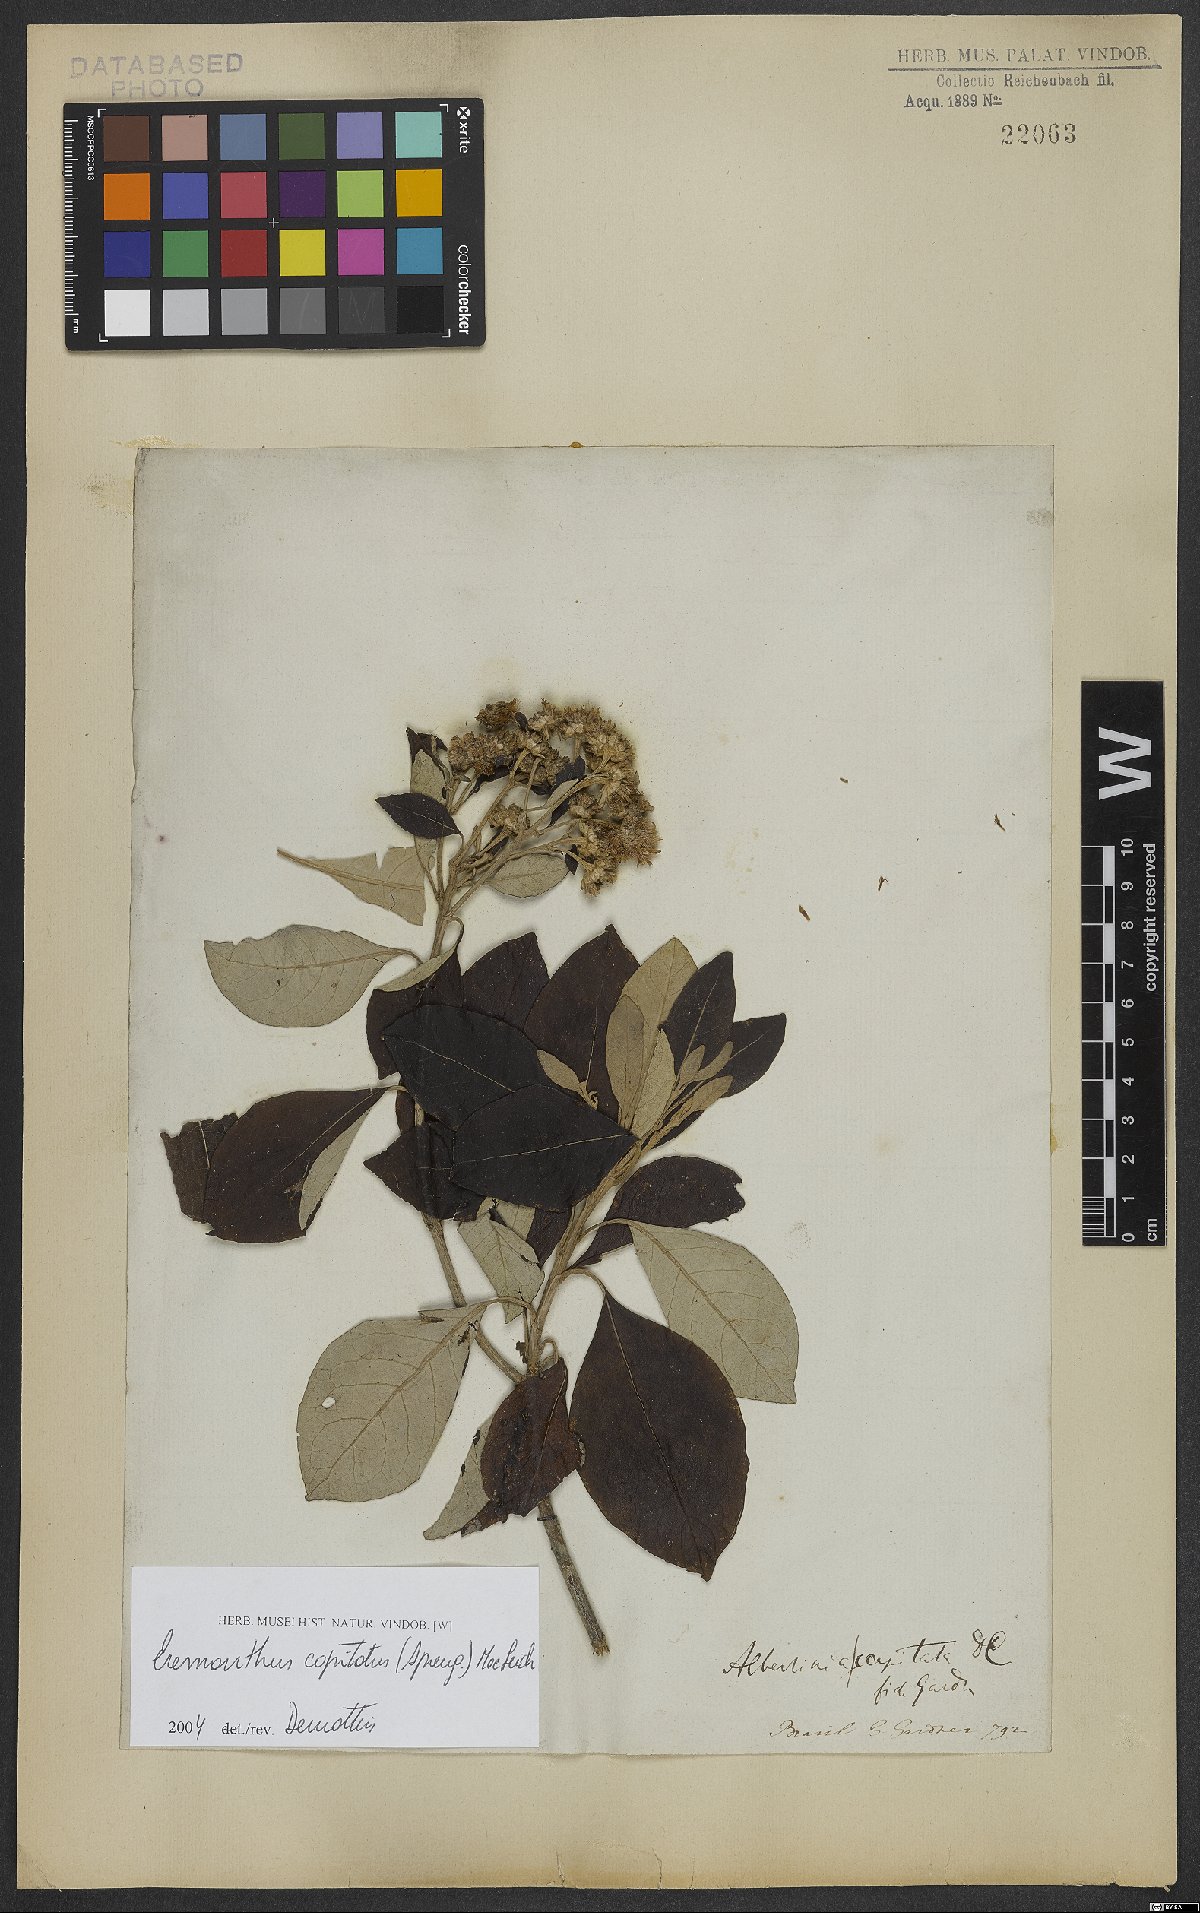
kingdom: Plantae
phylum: Tracheophyta
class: Magnoliopsida
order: Asterales
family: Asteraceae
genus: Eremanthus
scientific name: Eremanthus capitatus
